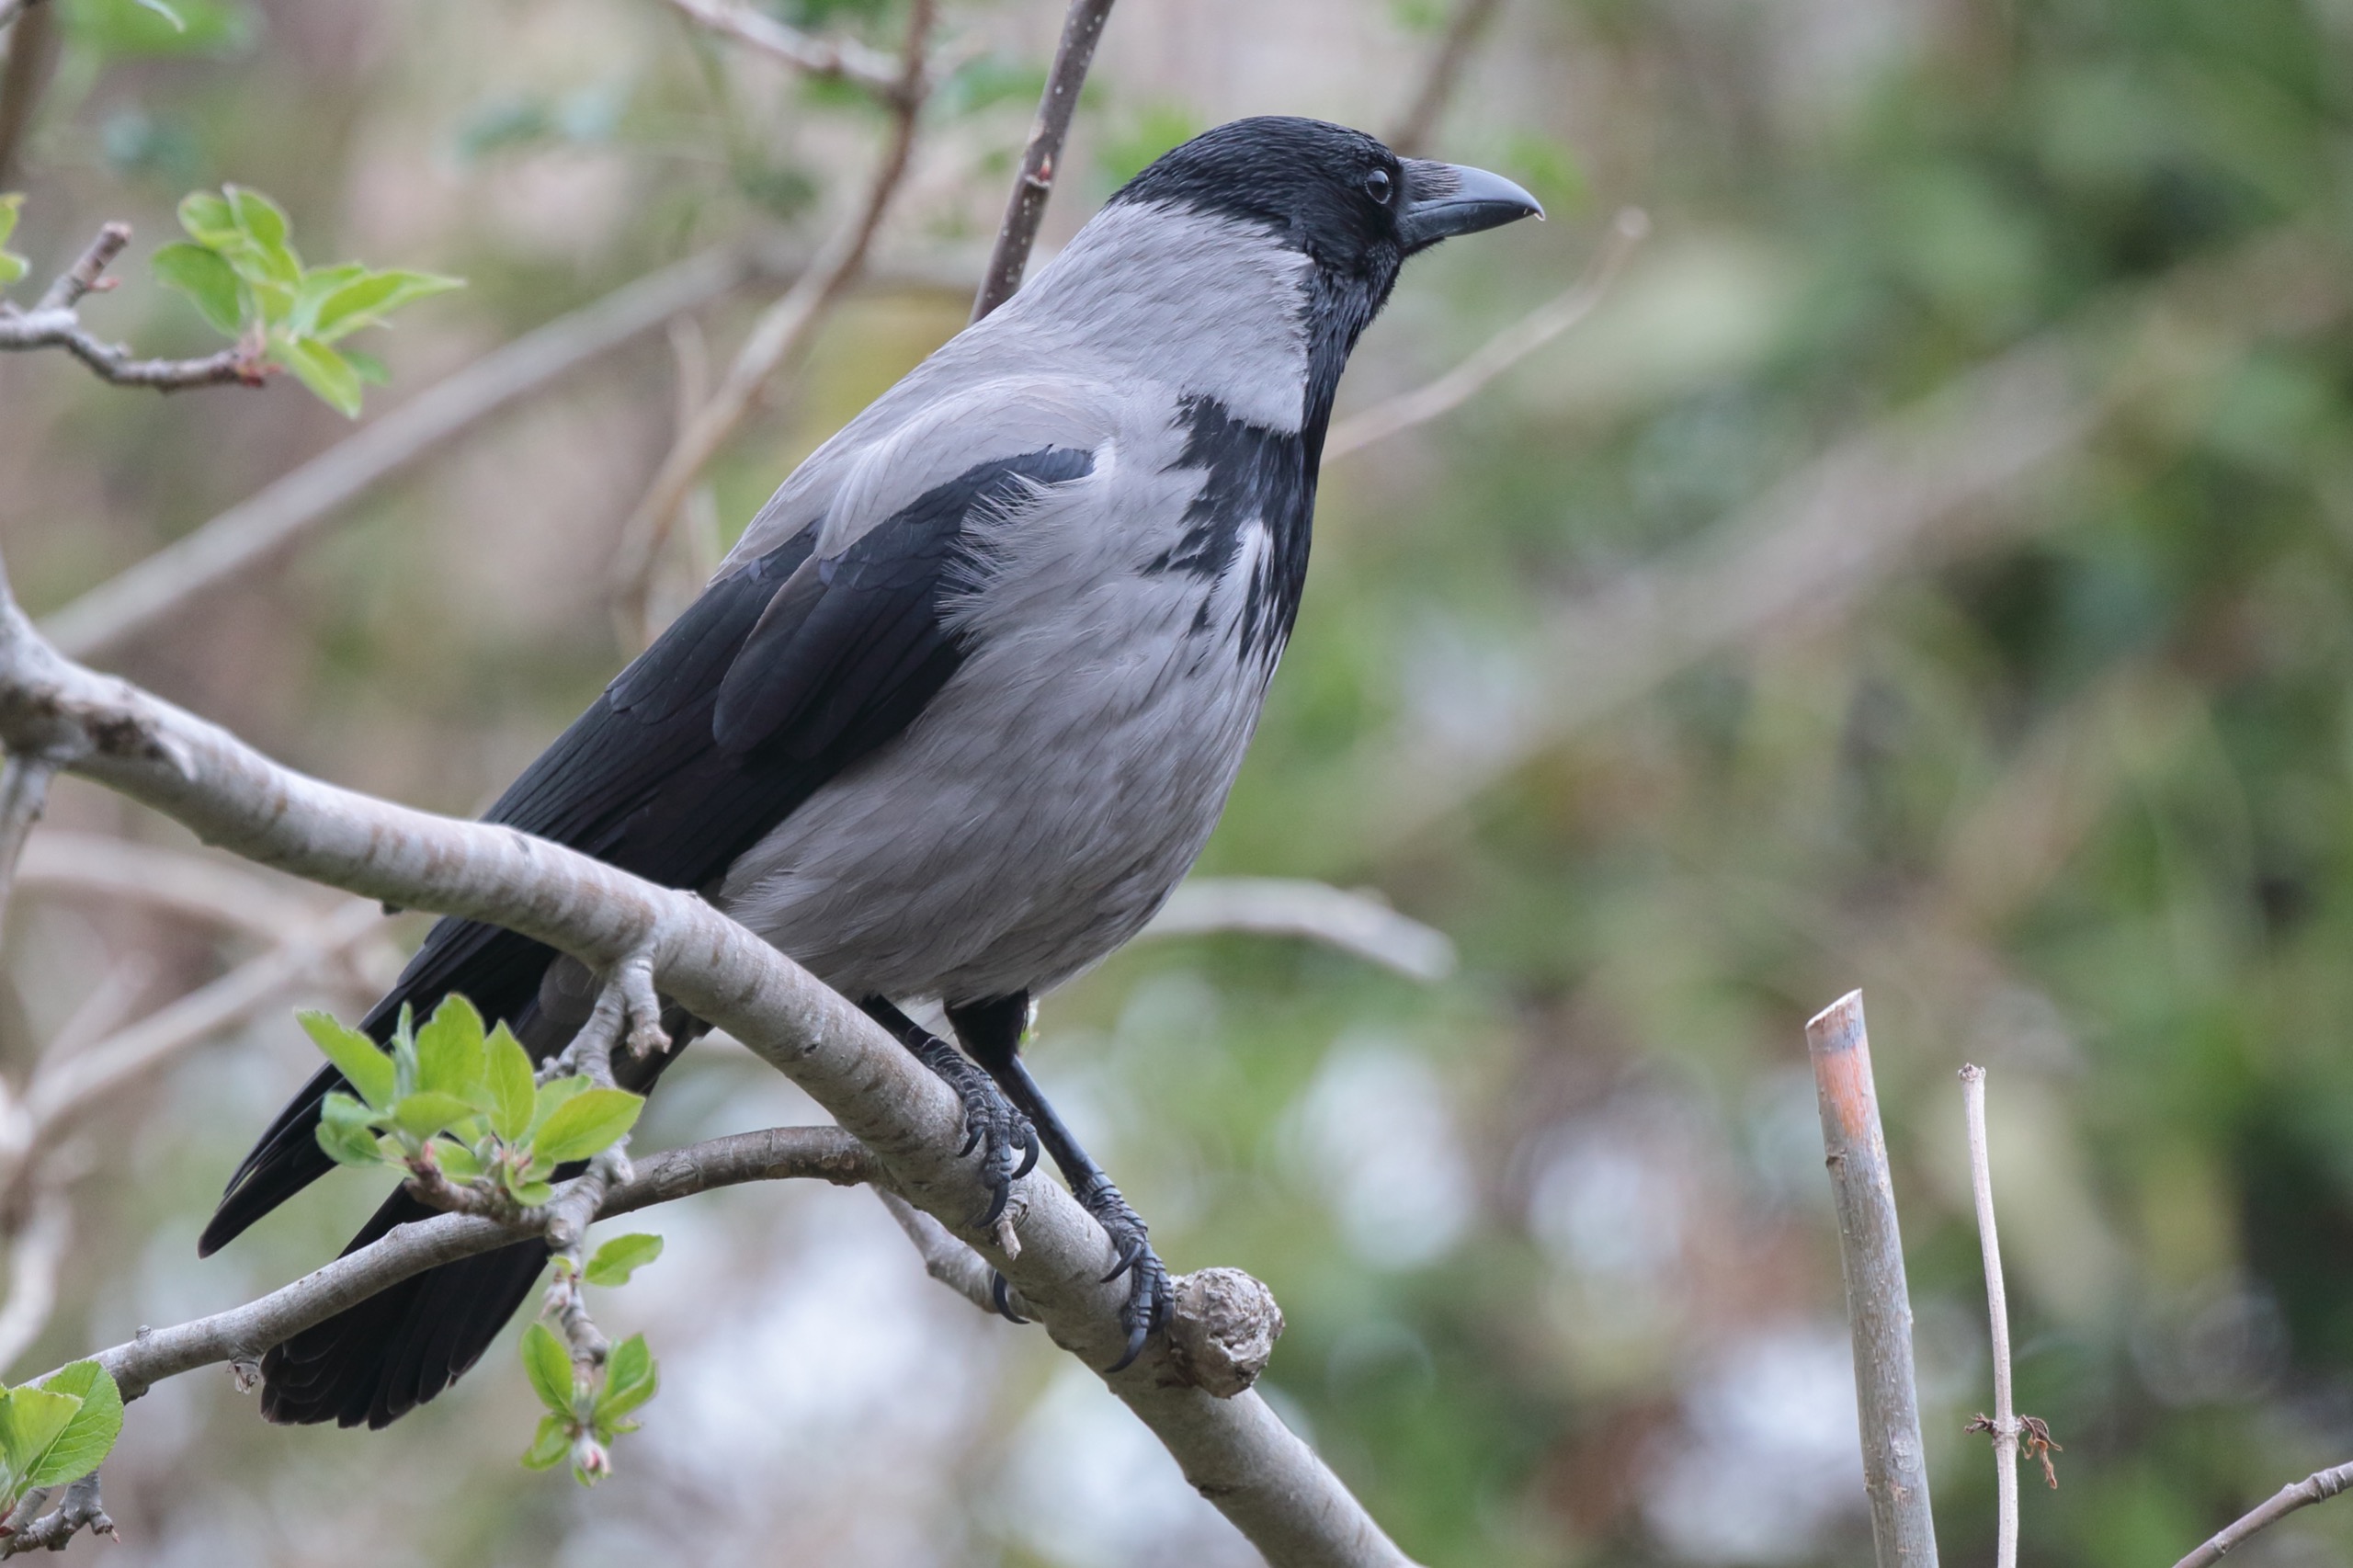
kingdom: Animalia
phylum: Chordata
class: Aves
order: Passeriformes
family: Corvidae
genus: Corvus
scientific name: Corvus cornix
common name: Gråkrage
